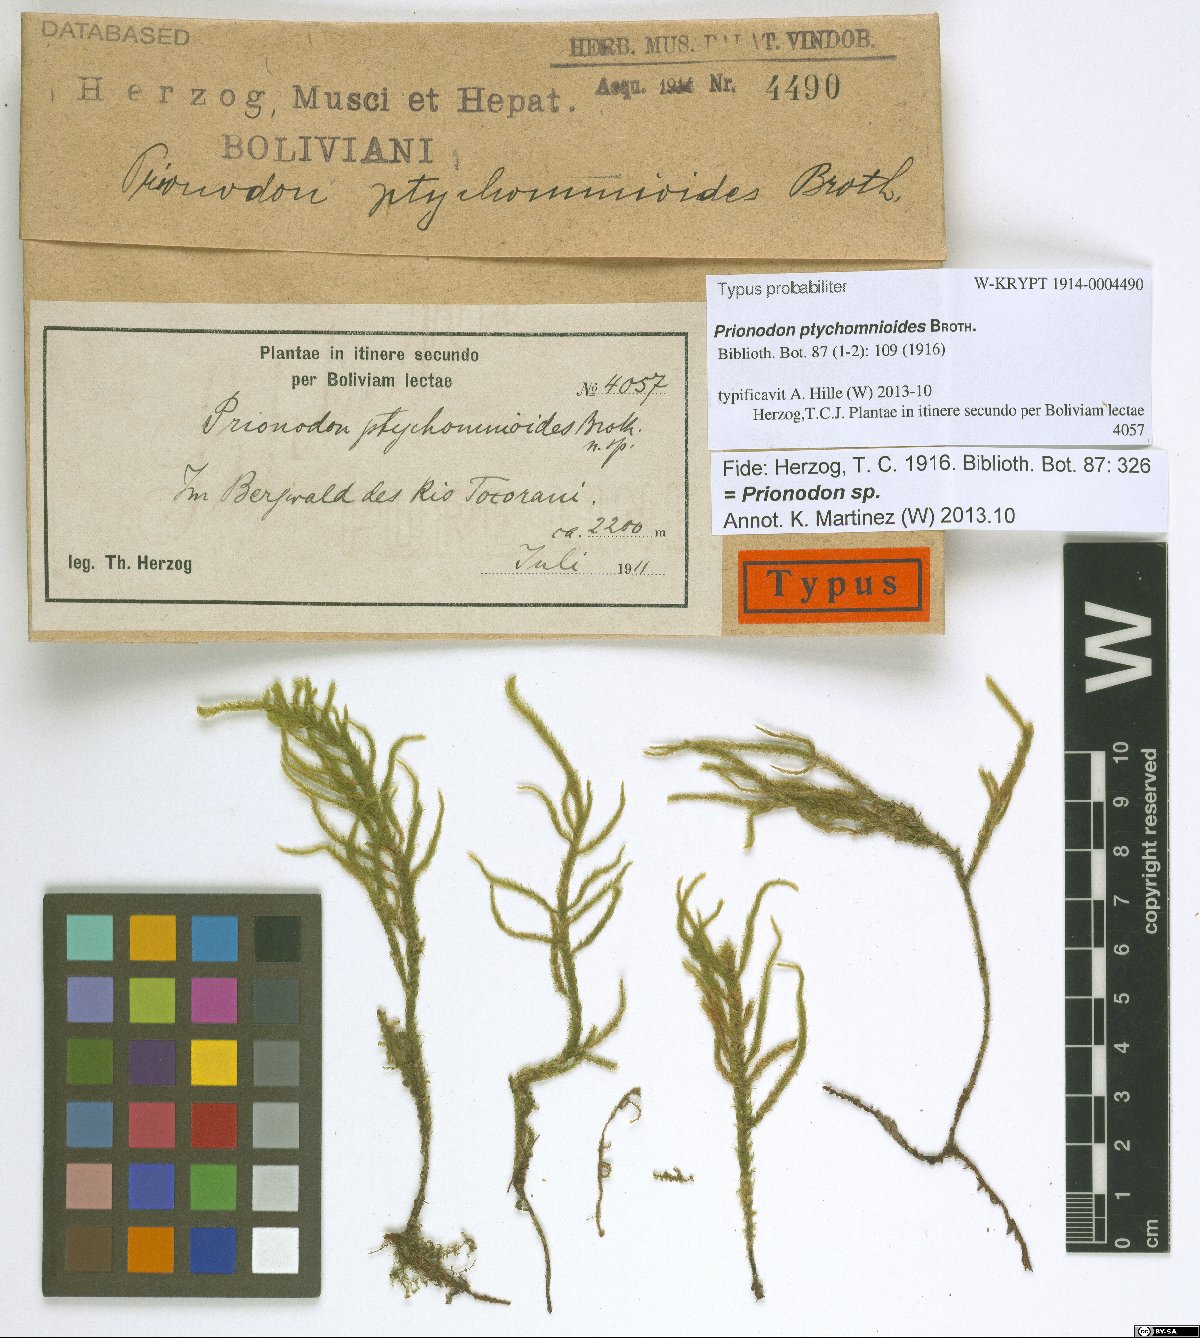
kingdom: Plantae
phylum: Bryophyta
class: Bryopsida
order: Hypnales
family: Prionodontaceae
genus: Prionodon
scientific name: Prionodon luteovirens
